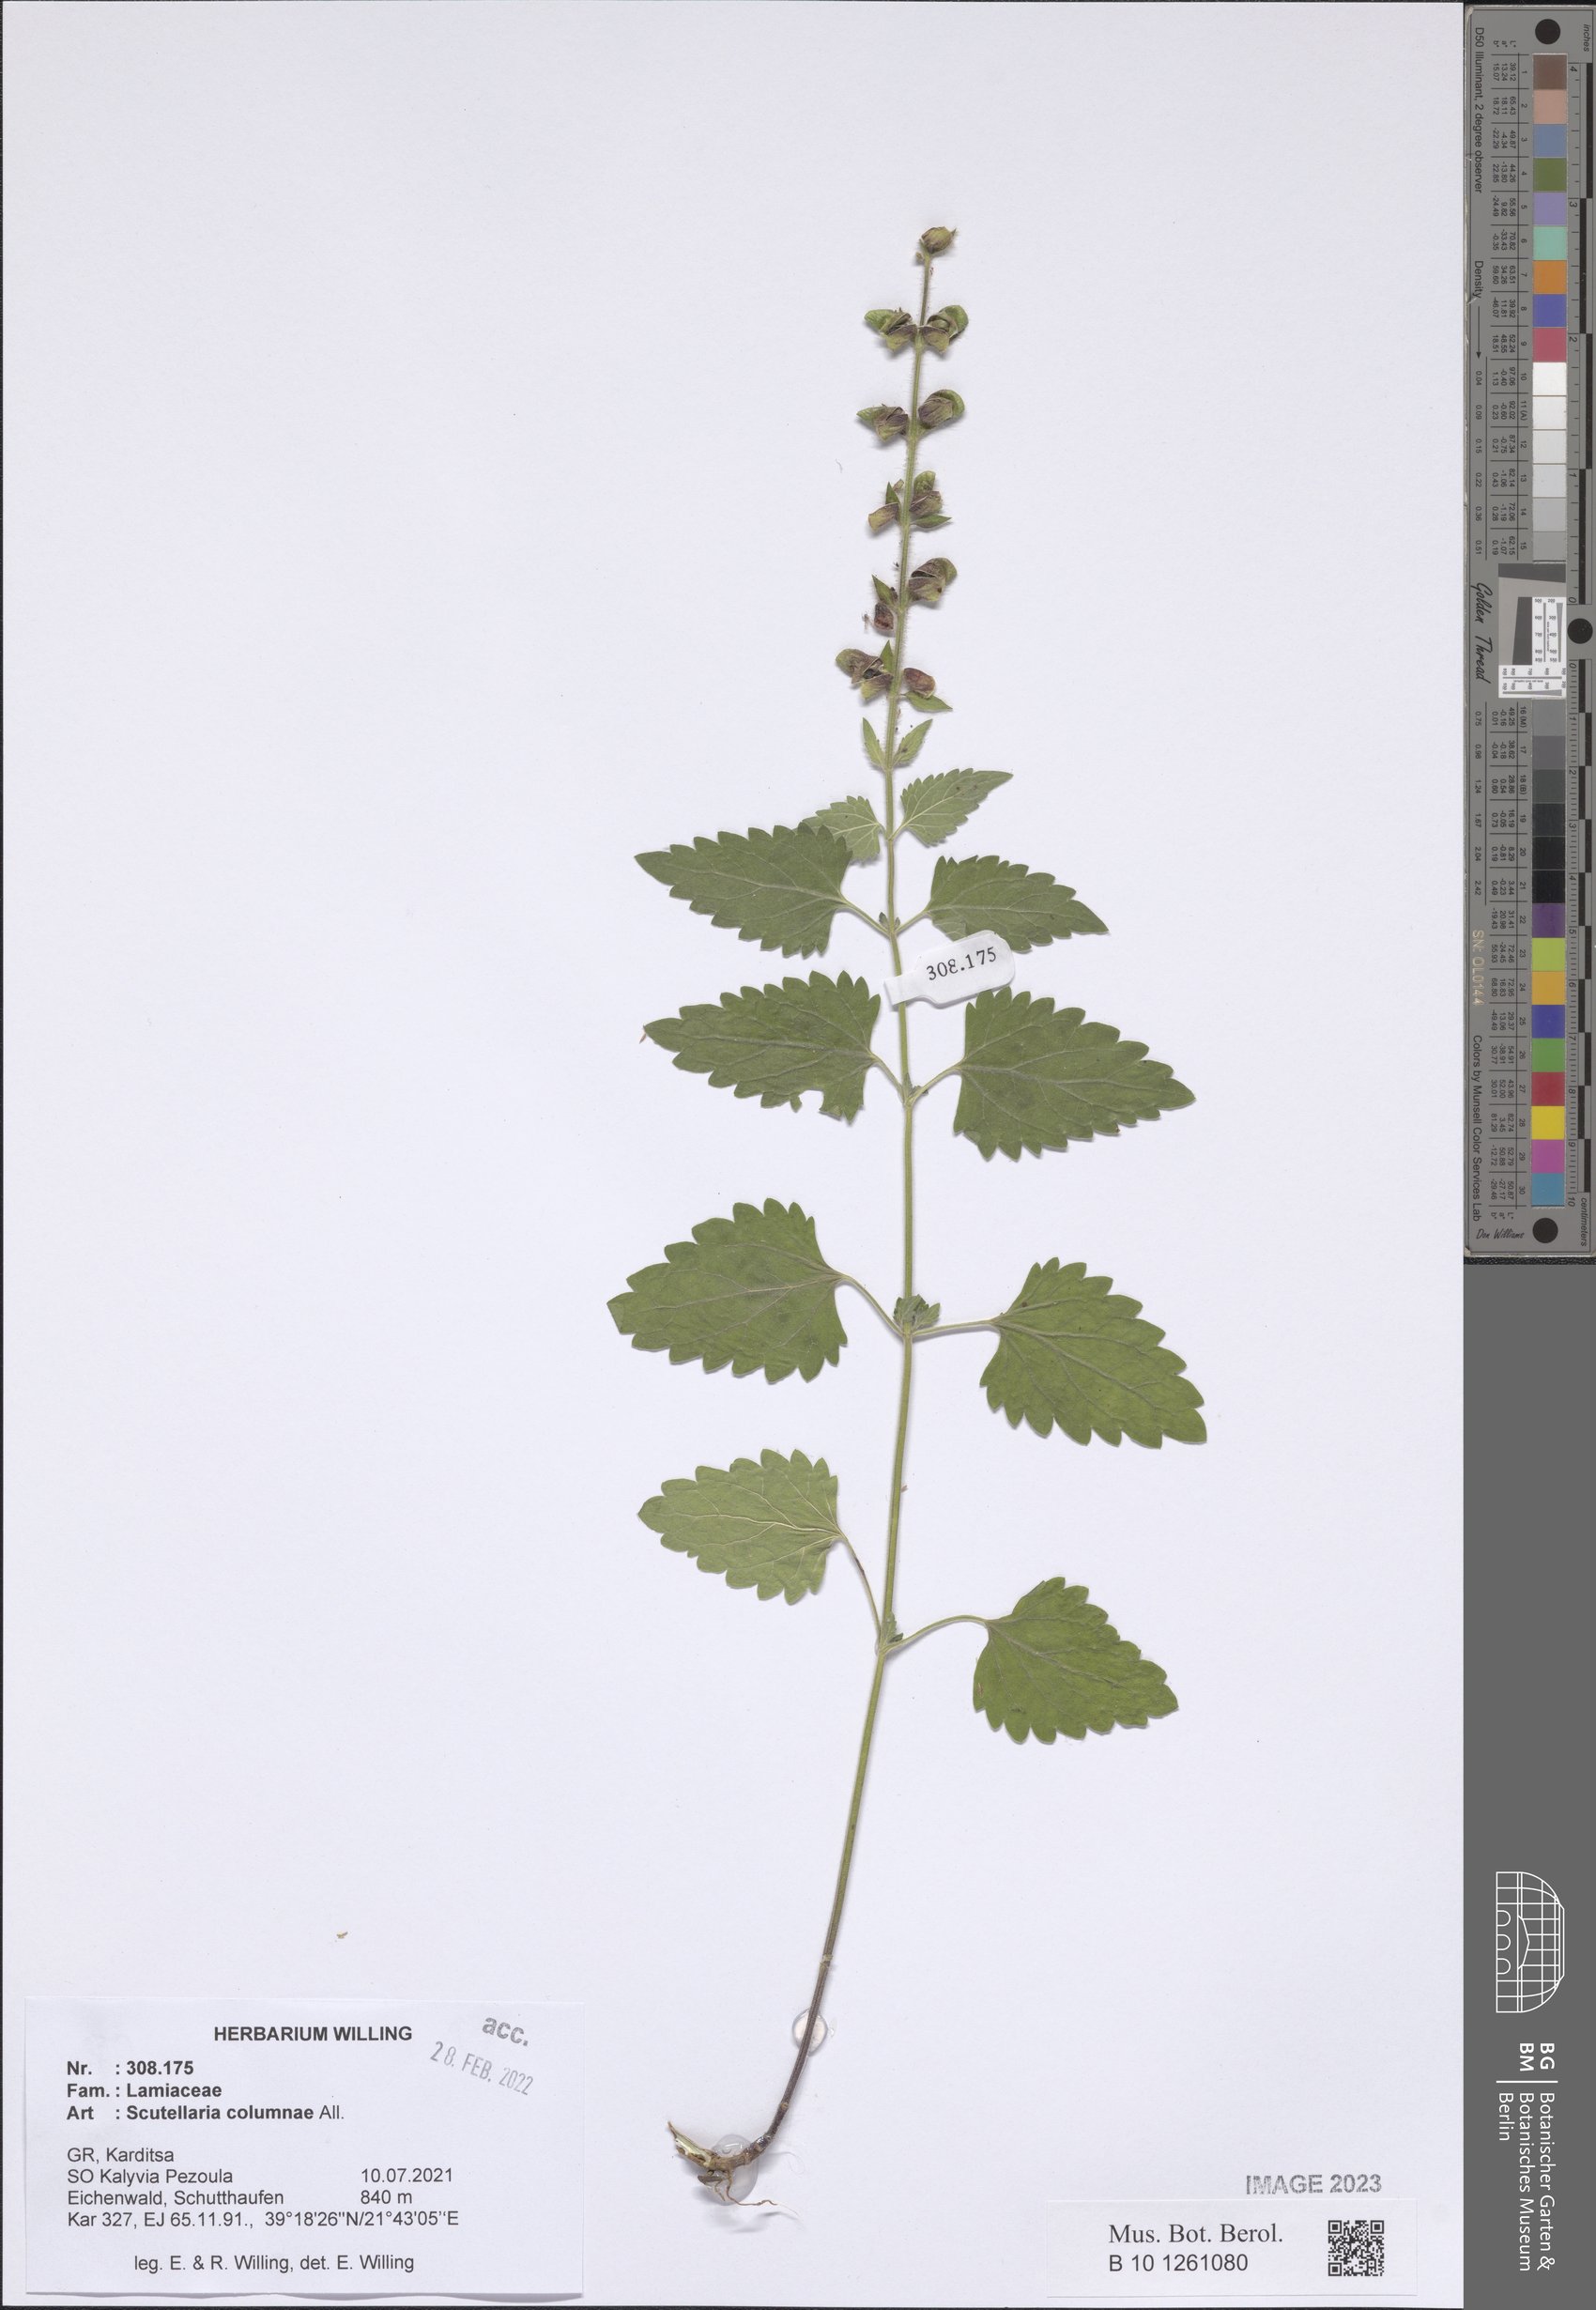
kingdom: Plantae
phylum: Tracheophyta
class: Magnoliopsida
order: Lamiales
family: Lamiaceae
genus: Scutellaria
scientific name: Scutellaria columnae
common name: Large skullcap
